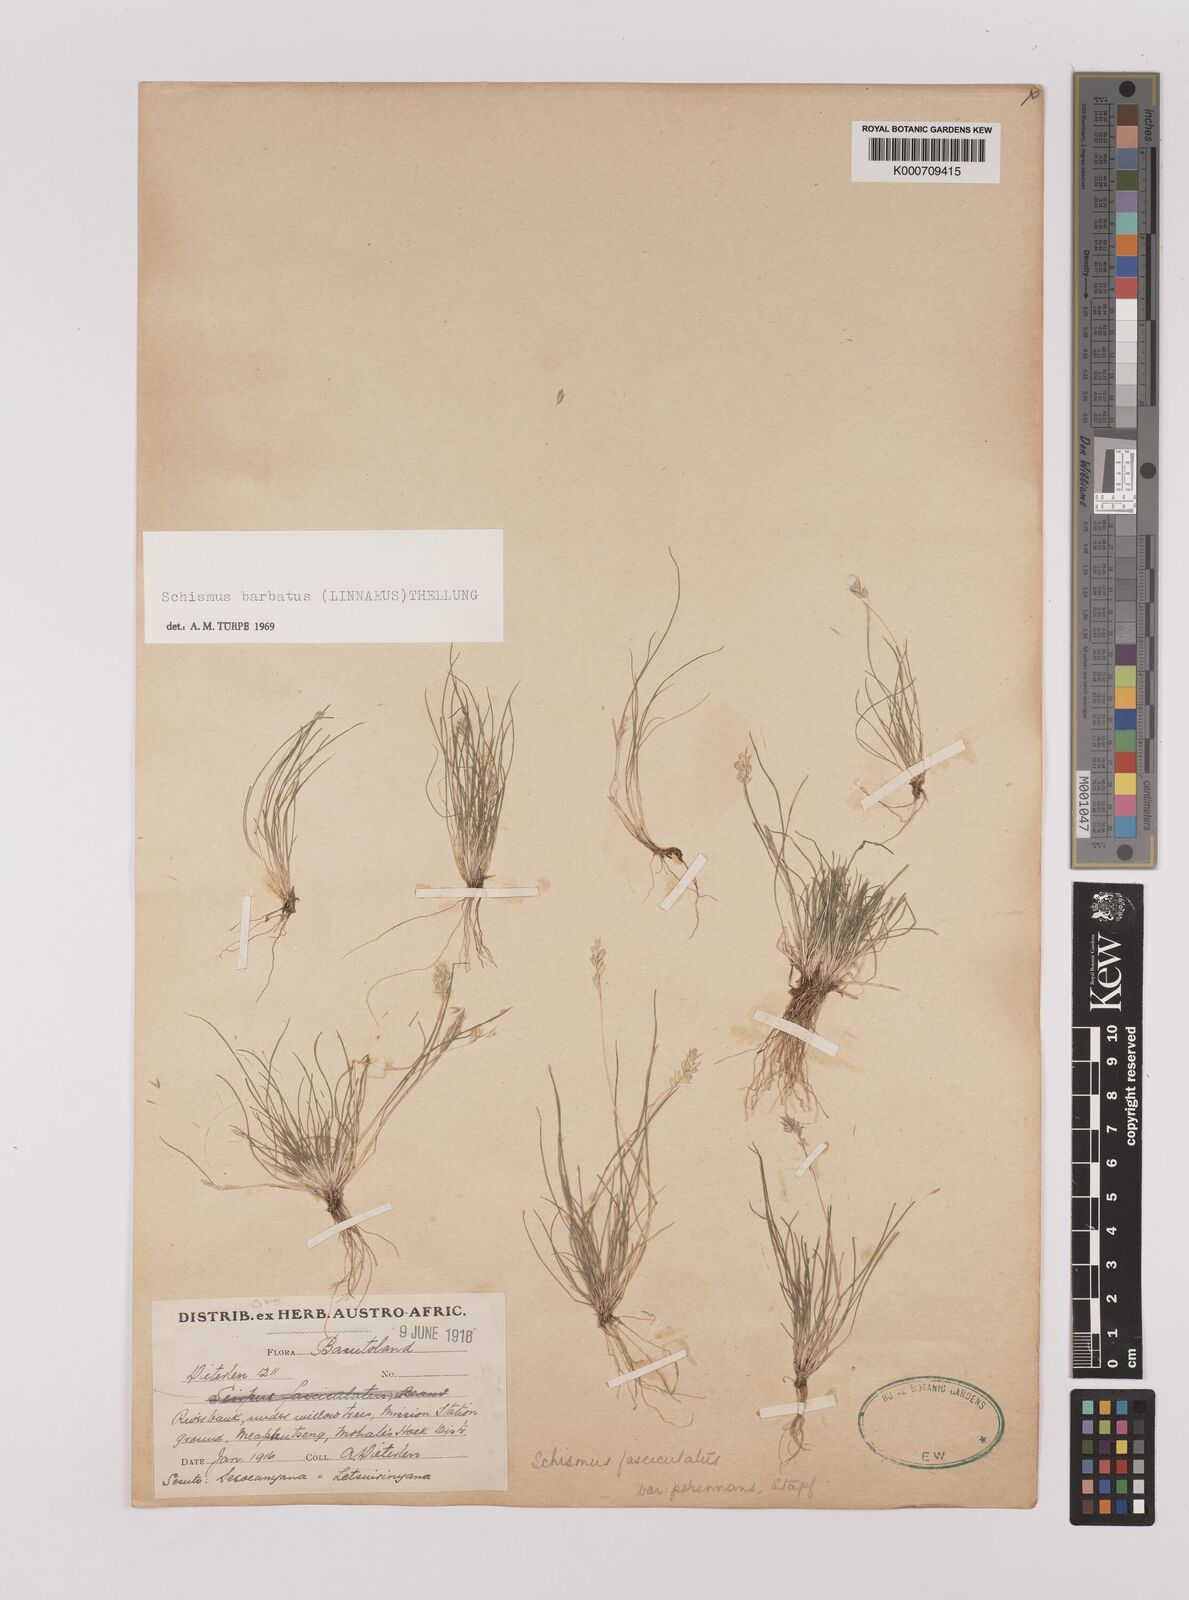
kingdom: Plantae
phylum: Tracheophyta
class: Liliopsida
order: Poales
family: Poaceae
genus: Schismus
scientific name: Schismus barbatus
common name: Kelch-grass
